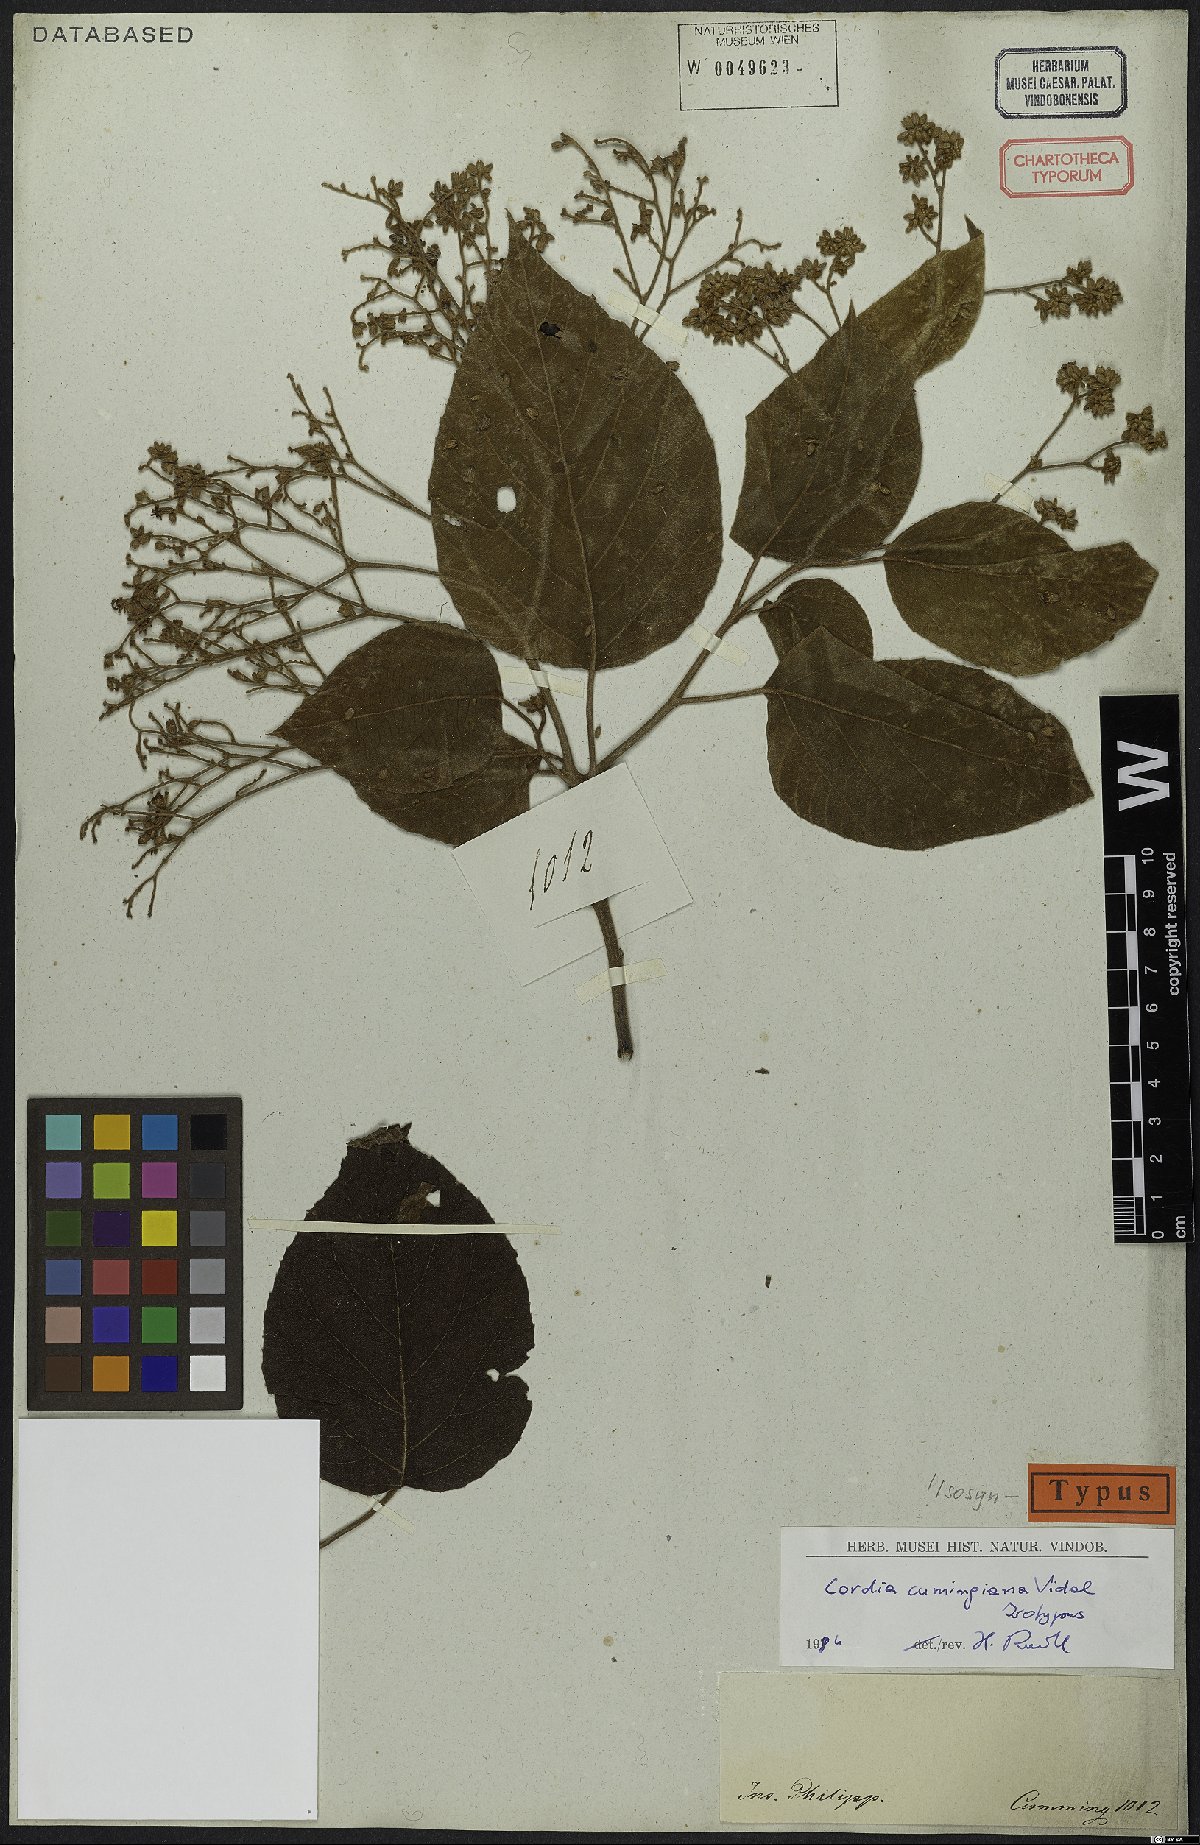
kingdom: Plantae
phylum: Tracheophyta
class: Magnoliopsida
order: Boraginales
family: Cordiaceae
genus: Cordia
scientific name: Cordia aspera
